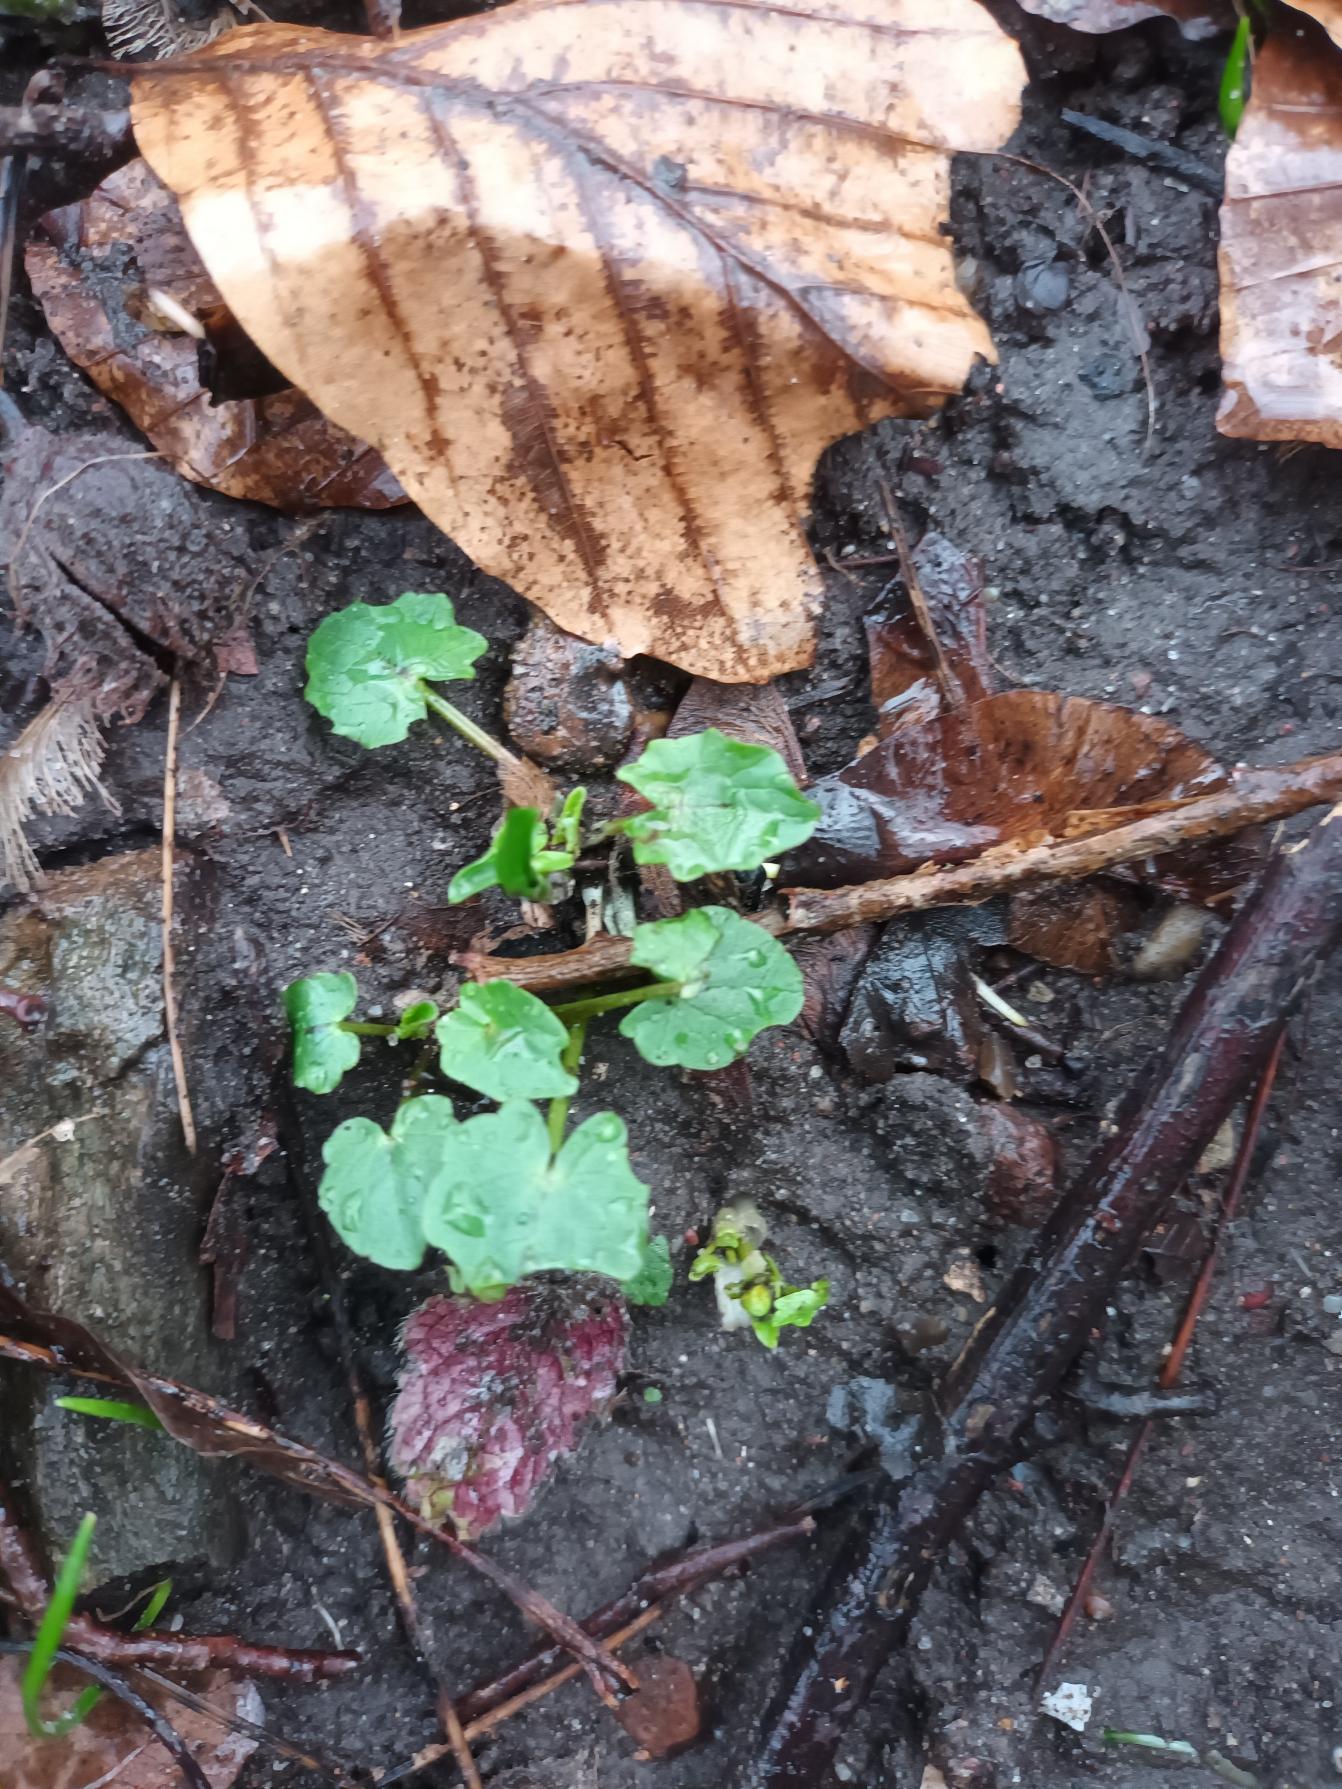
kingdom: Plantae
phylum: Tracheophyta
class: Magnoliopsida
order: Ranunculales
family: Ranunculaceae
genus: Ficaria
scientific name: Ficaria verna
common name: Vorterod
